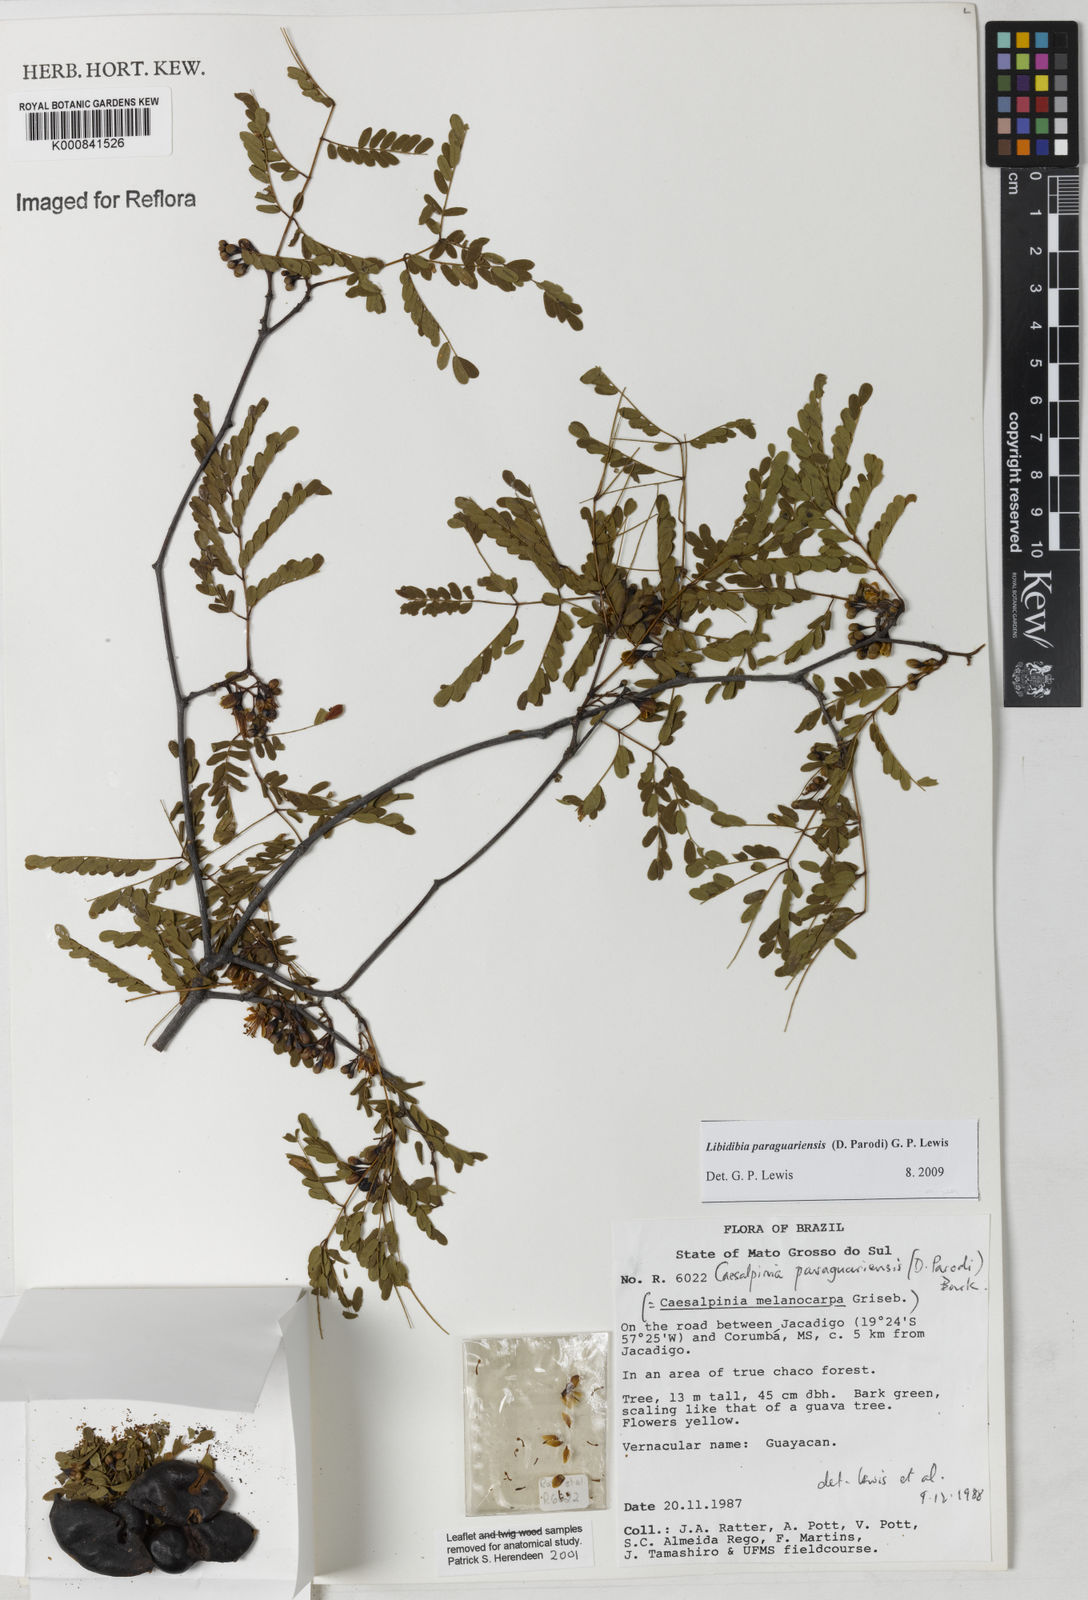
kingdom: Plantae
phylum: Tracheophyta
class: Magnoliopsida
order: Fabales
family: Fabaceae
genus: Libidibia
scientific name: Libidibia paraguariensis
